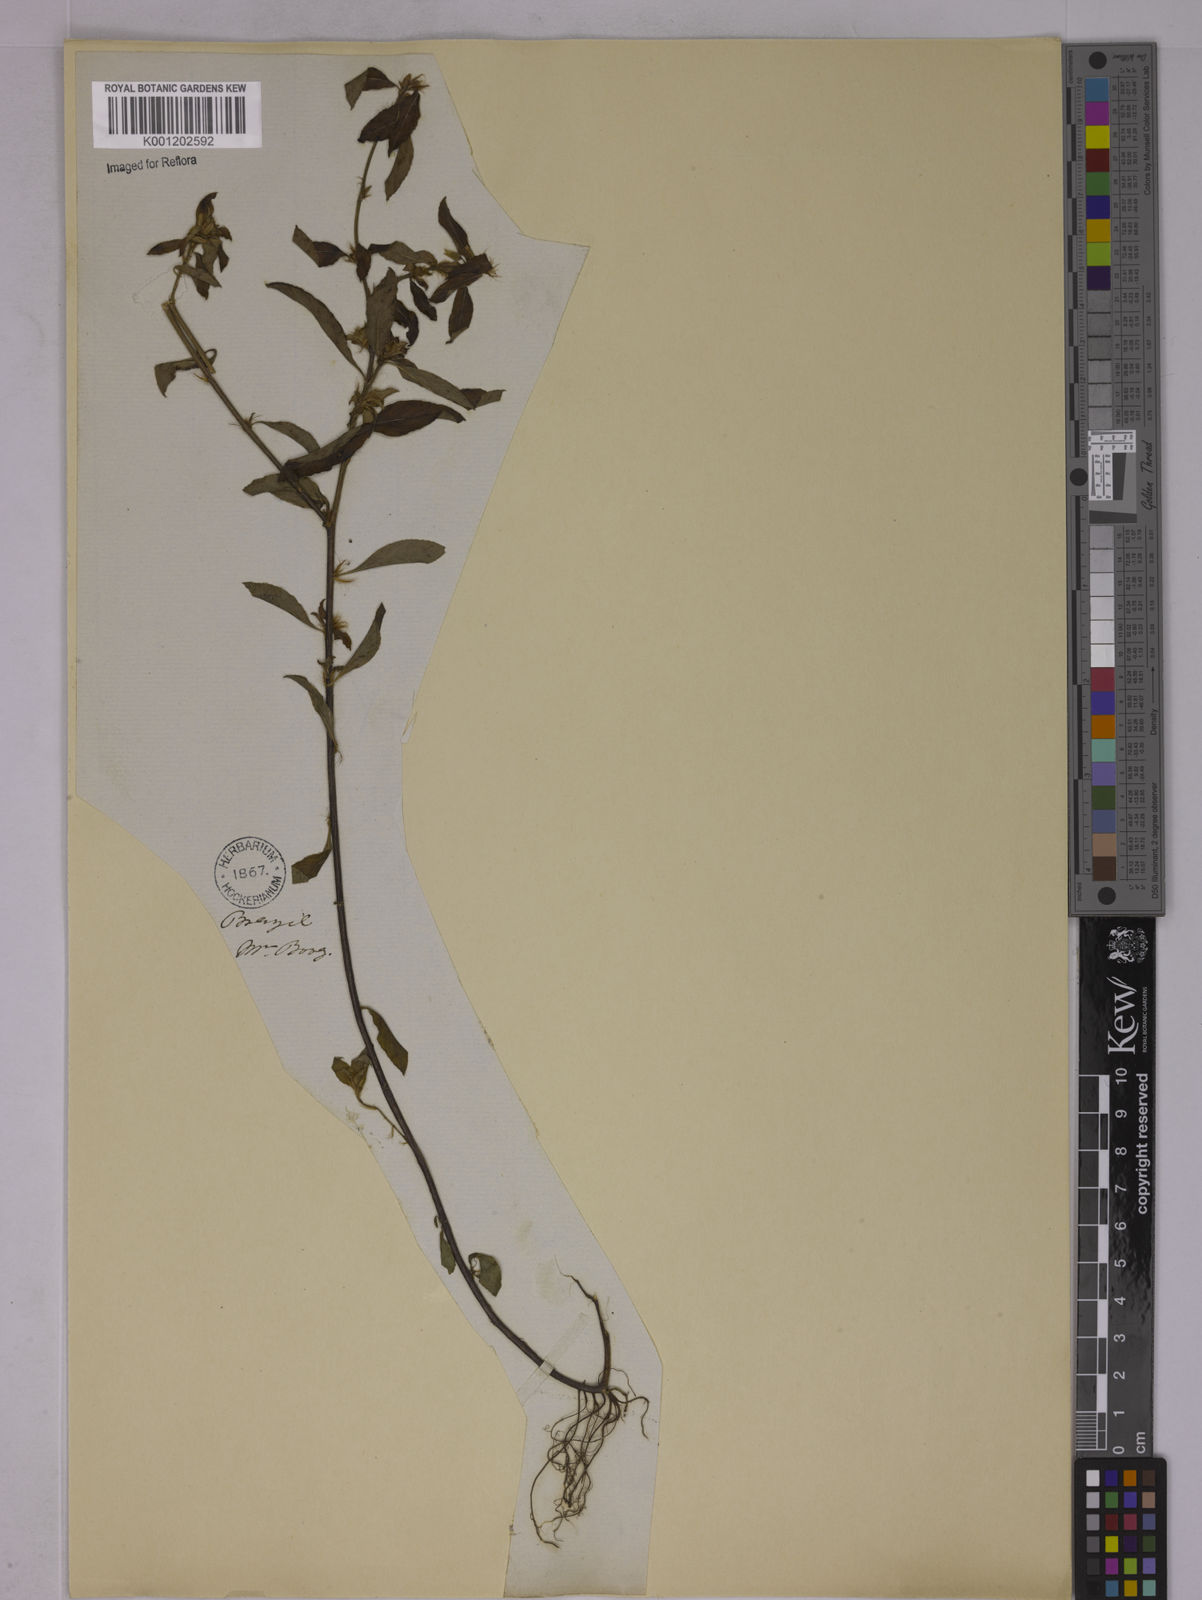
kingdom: Plantae
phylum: Tracheophyta
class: Magnoliopsida
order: Malpighiales
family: Ochnaceae
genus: Sauvagesia
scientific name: Sauvagesia erecta
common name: Creole tea
